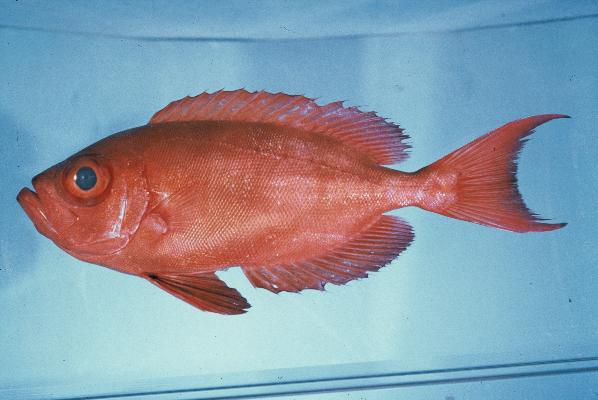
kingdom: Animalia
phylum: Chordata
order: Perciformes
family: Priacanthidae
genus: Priacanthus
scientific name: Priacanthus hamrur
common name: Moontail bullseye
